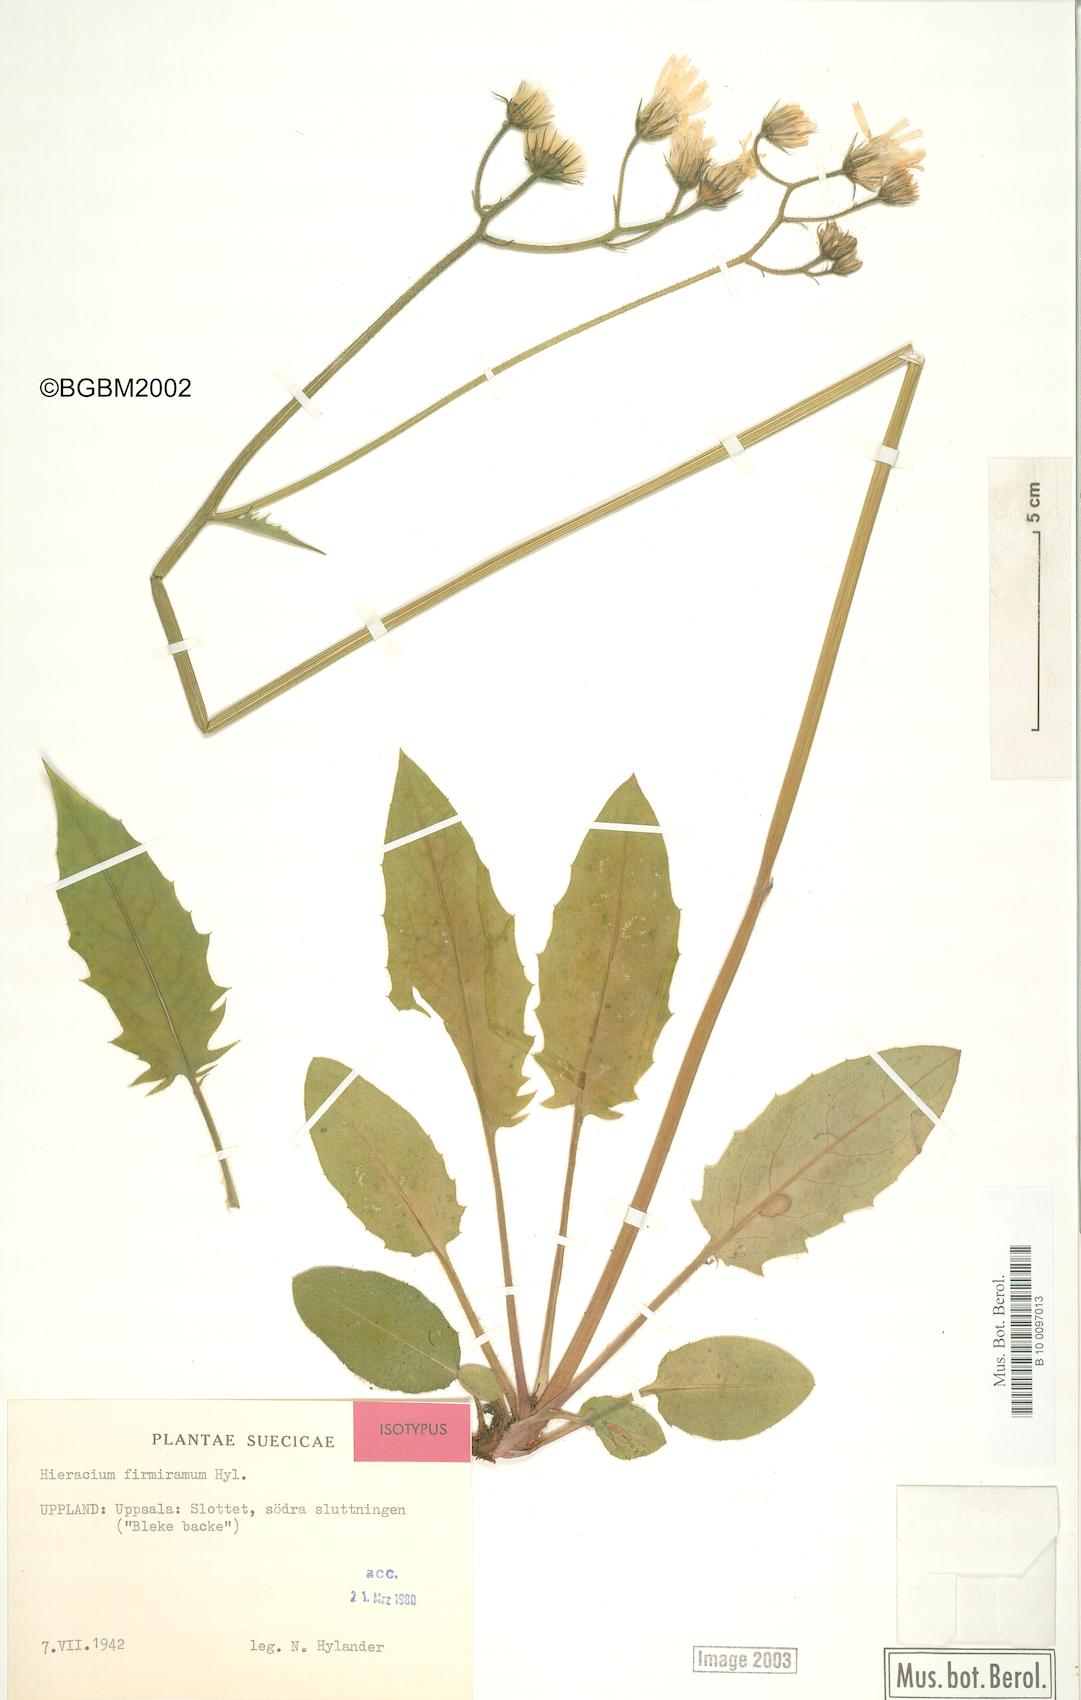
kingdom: Plantae
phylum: Tracheophyta
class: Magnoliopsida
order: Asterales
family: Asteraceae
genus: Hieracium
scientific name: Hieracium murorum
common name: Wall hawkweed
